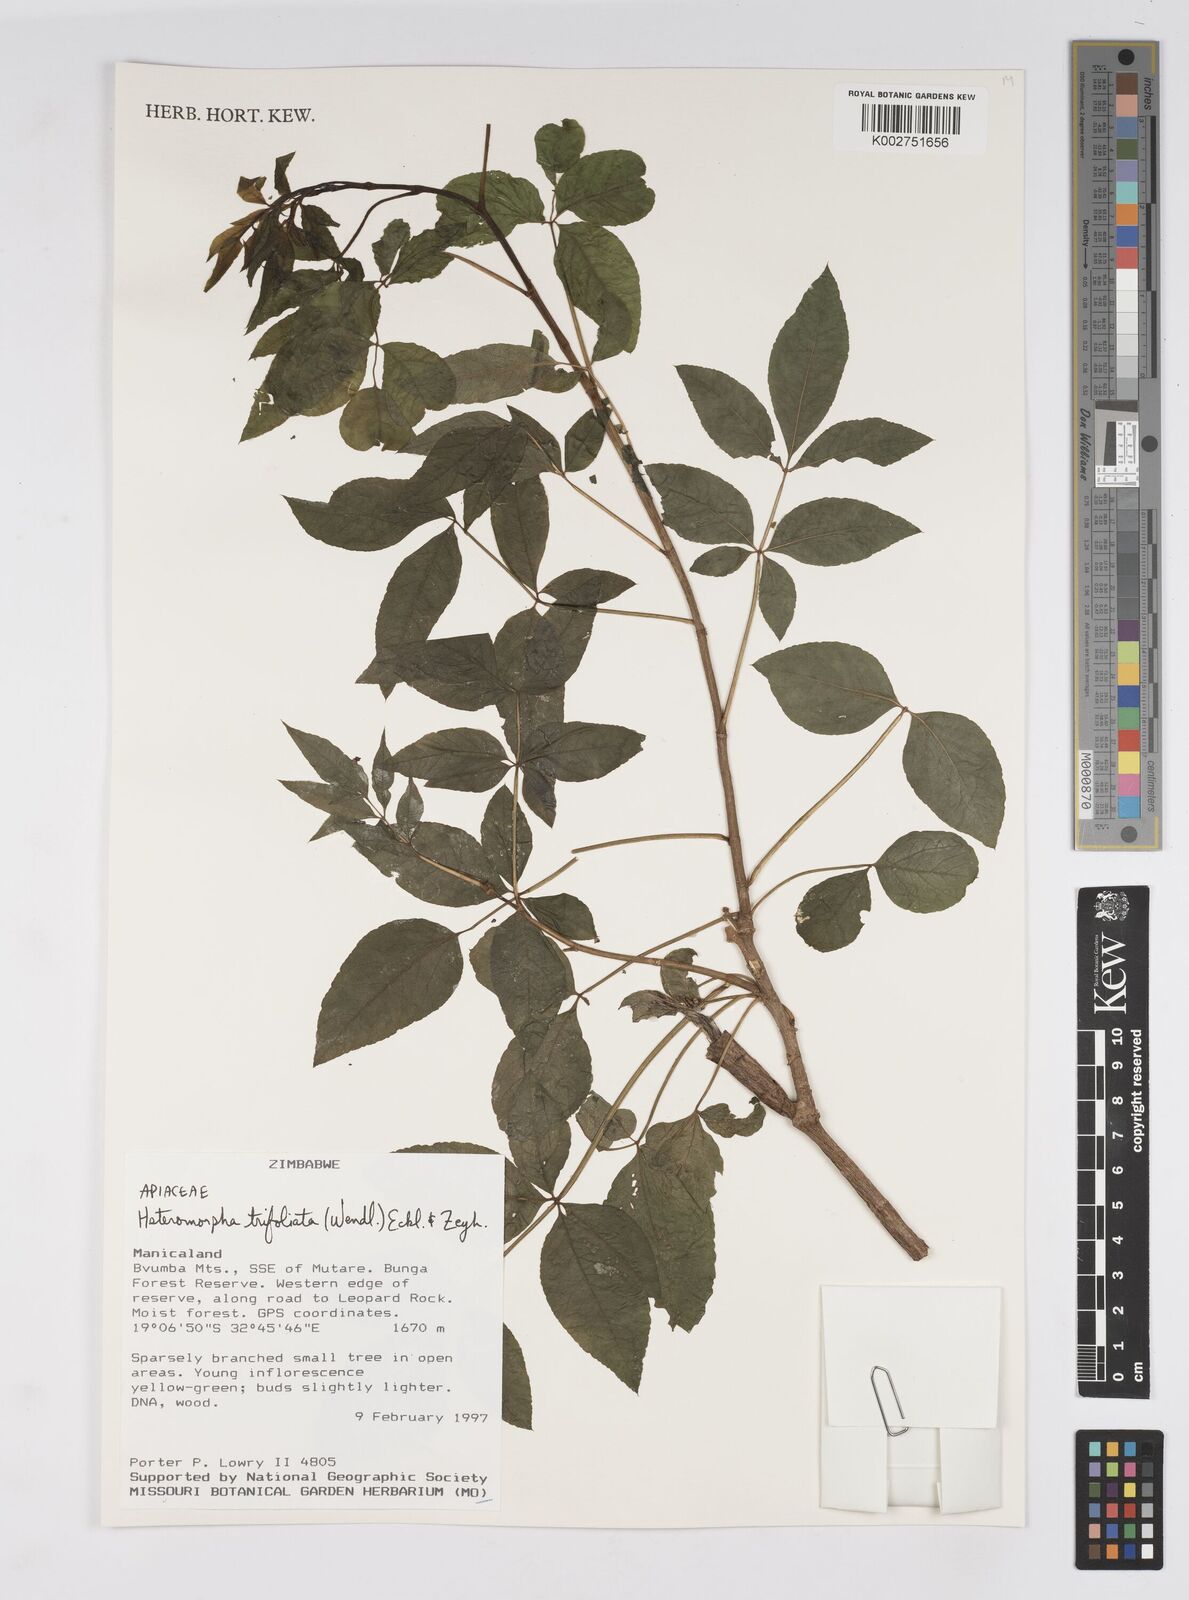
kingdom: Plantae
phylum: Tracheophyta
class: Magnoliopsida
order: Apiales
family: Apiaceae
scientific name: Apiaceae
